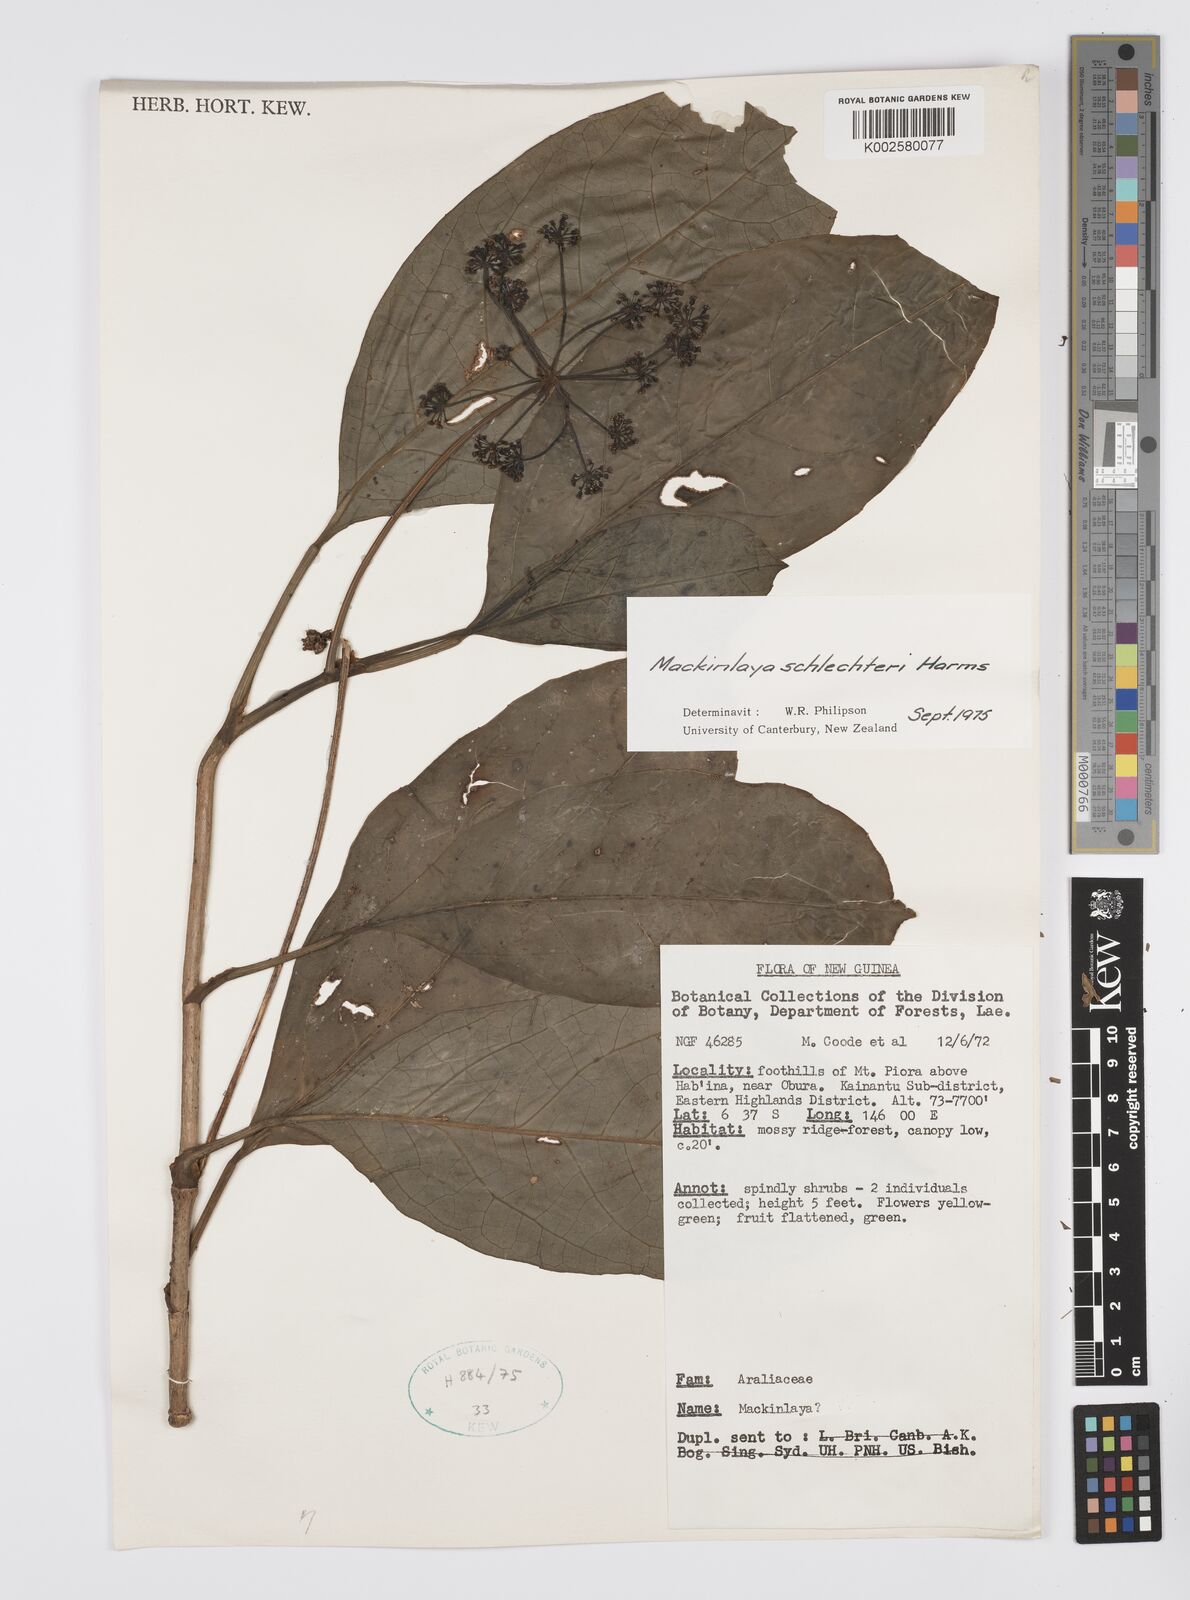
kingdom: Plantae
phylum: Tracheophyta
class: Magnoliopsida
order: Apiales
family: Apiaceae
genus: Mackinlaya
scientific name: Mackinlaya schlechteri
